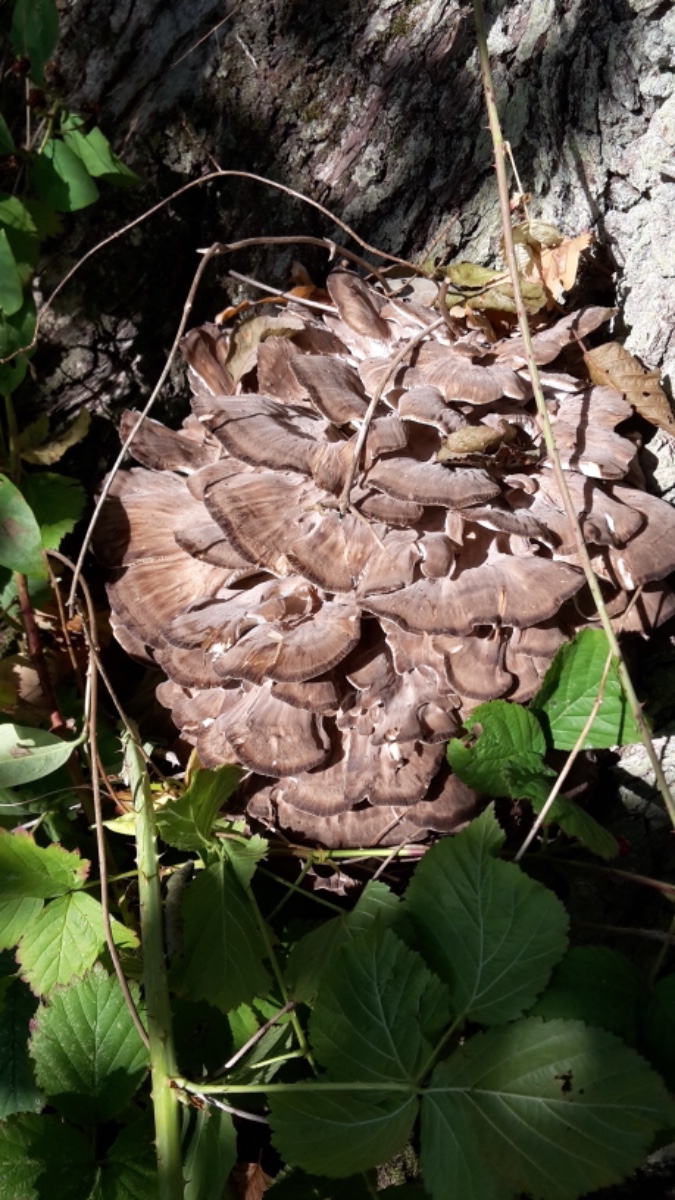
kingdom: Fungi
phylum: Basidiomycota
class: Agaricomycetes
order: Polyporales
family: Grifolaceae
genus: Grifola
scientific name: Grifola frondosa
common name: tueporesvamp
